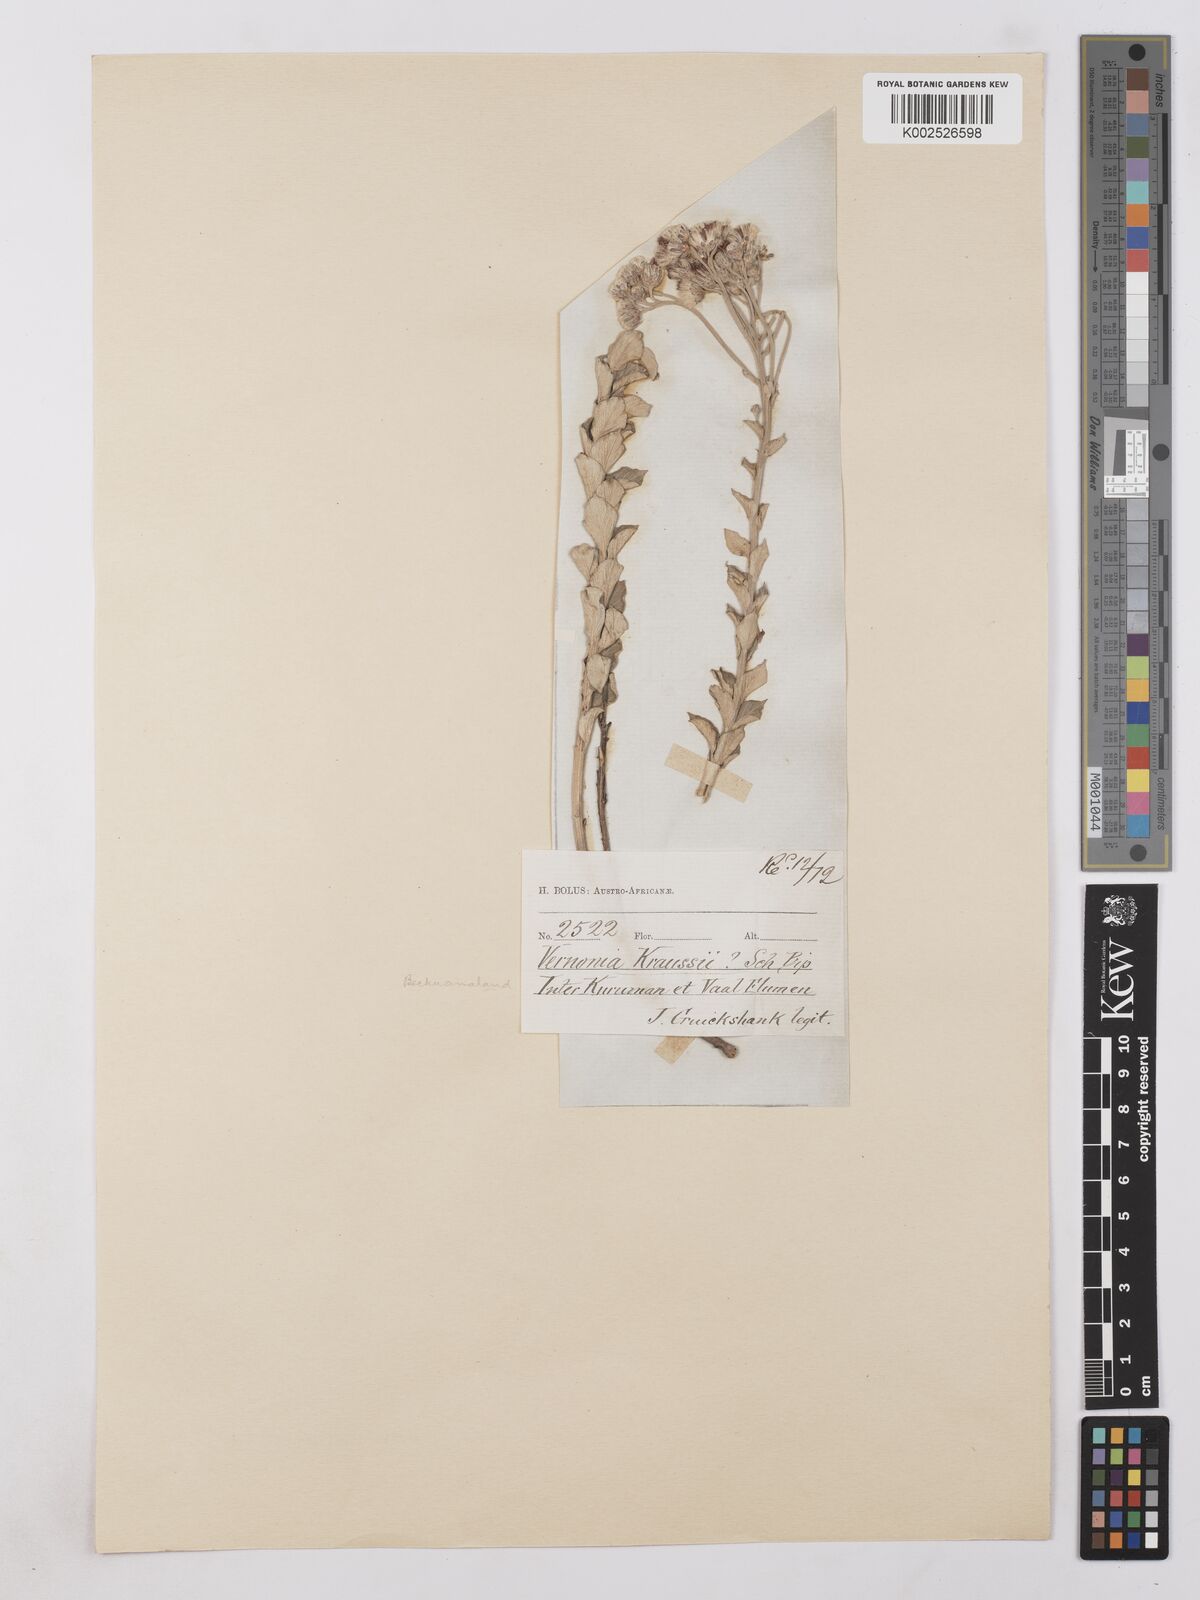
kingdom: Plantae
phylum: Tracheophyta
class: Magnoliopsida
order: Asterales
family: Asteraceae
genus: Lepidaploa
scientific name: Lepidaploa aurea
